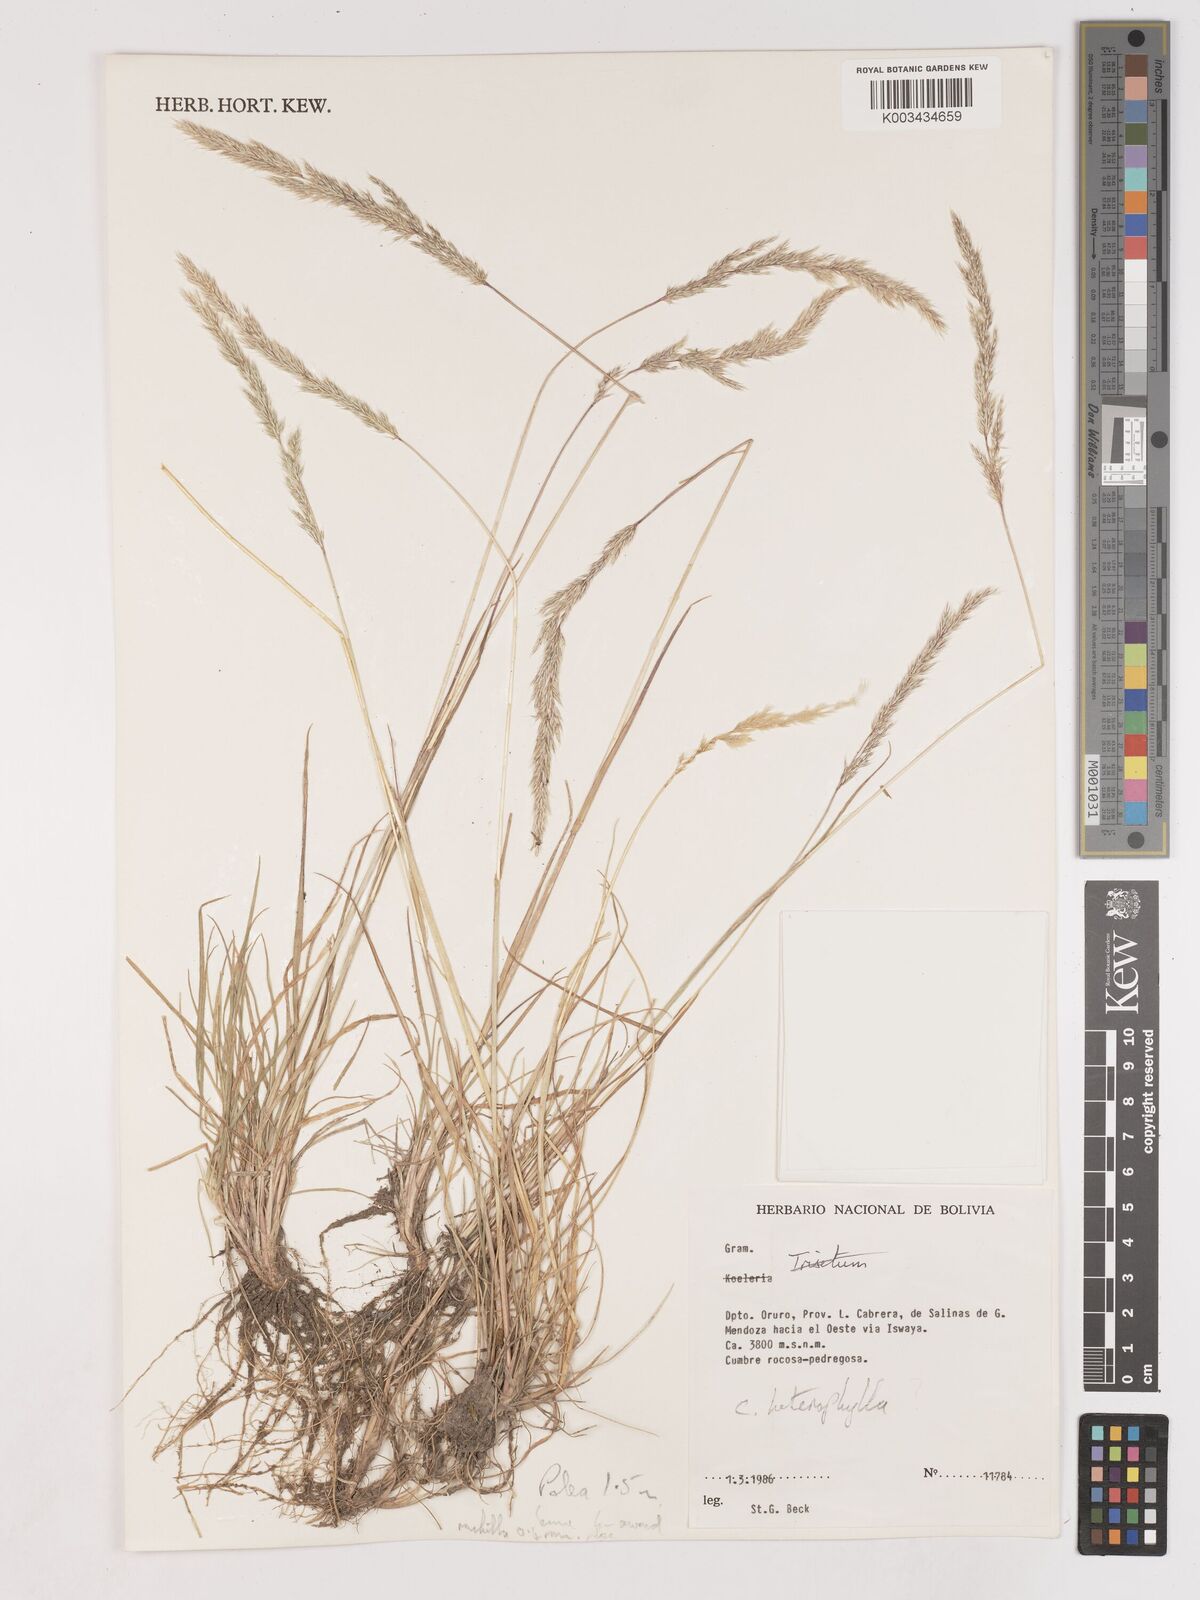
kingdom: Plantae
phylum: Tracheophyta
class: Liliopsida
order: Poales
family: Poaceae
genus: Cinnagrostis
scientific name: Cinnagrostis heterophylla
